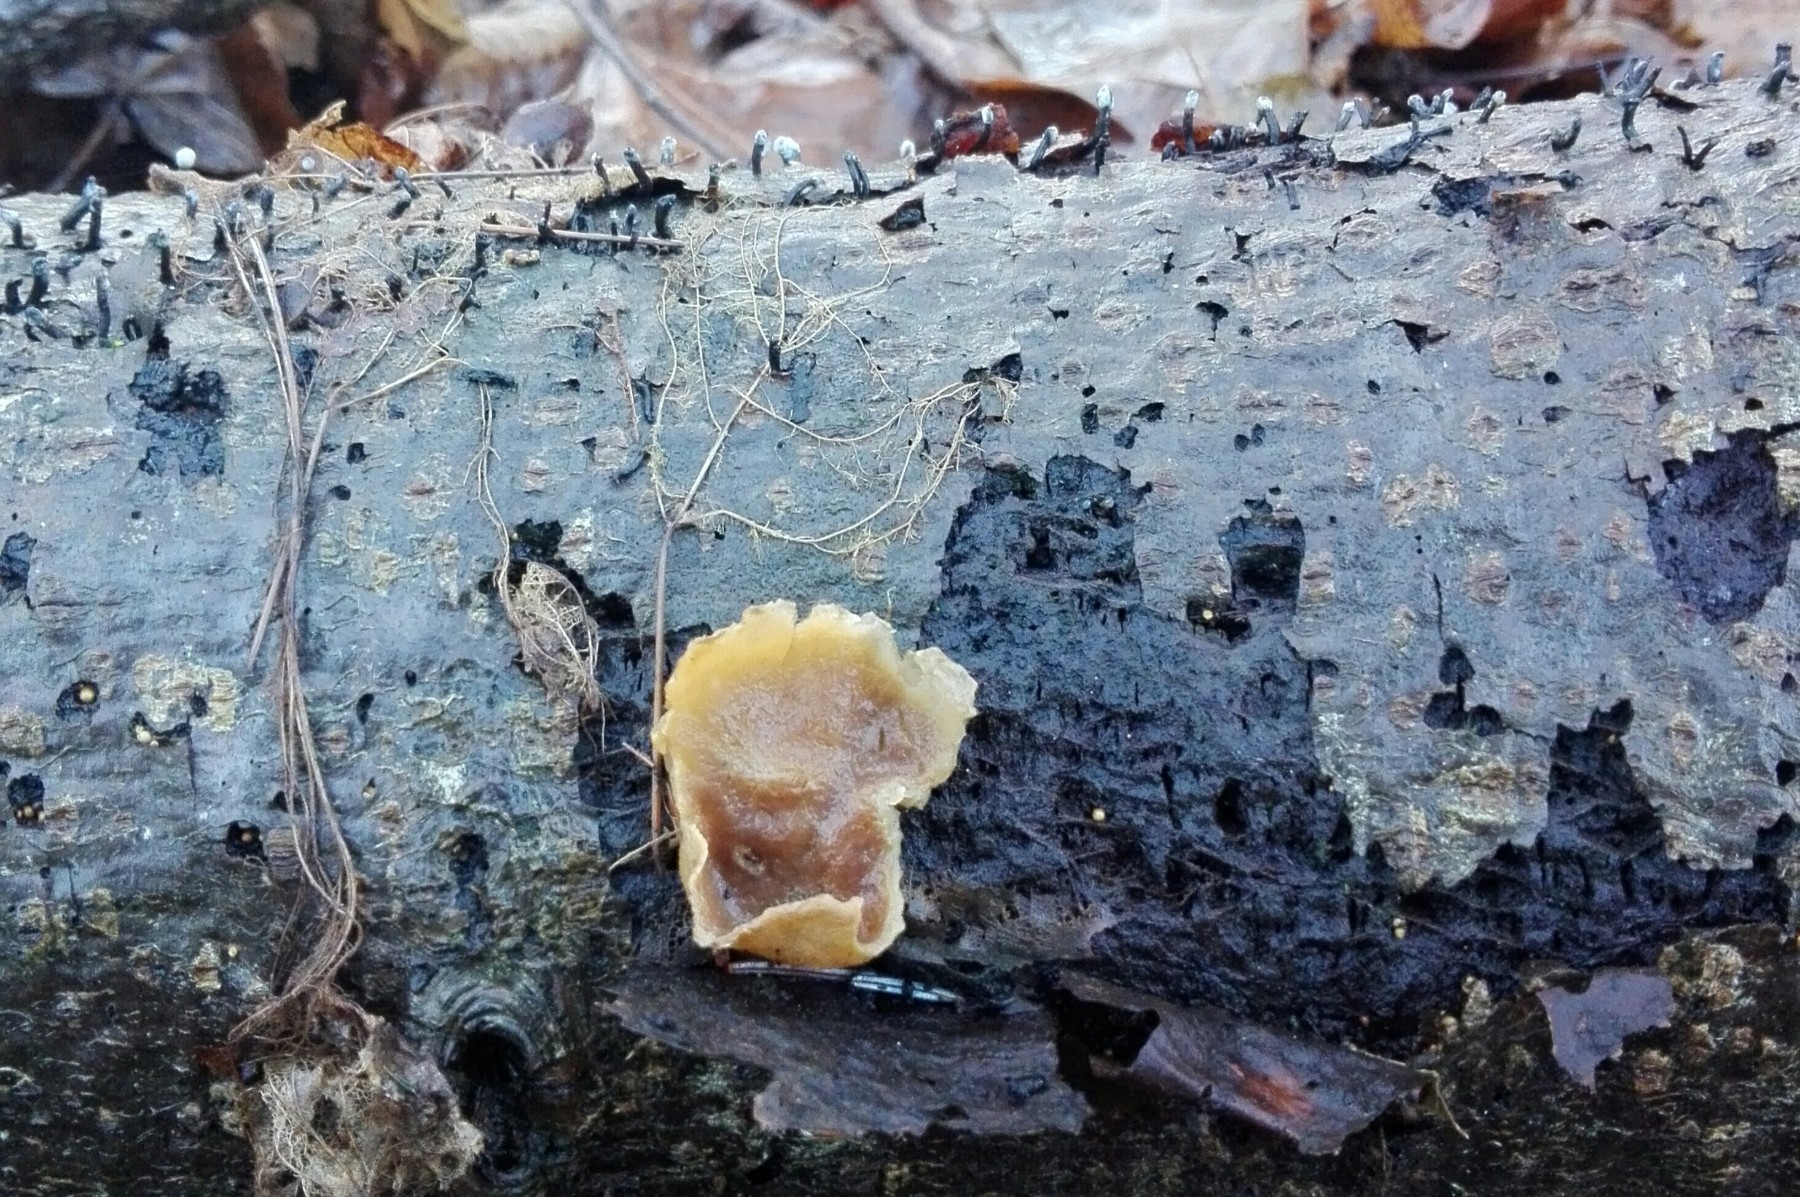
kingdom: Fungi
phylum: Ascomycota
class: Pezizomycetes
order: Pezizales
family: Pezizaceae
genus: Peziza
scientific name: Peziza varia
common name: Ved-bægersvamp
